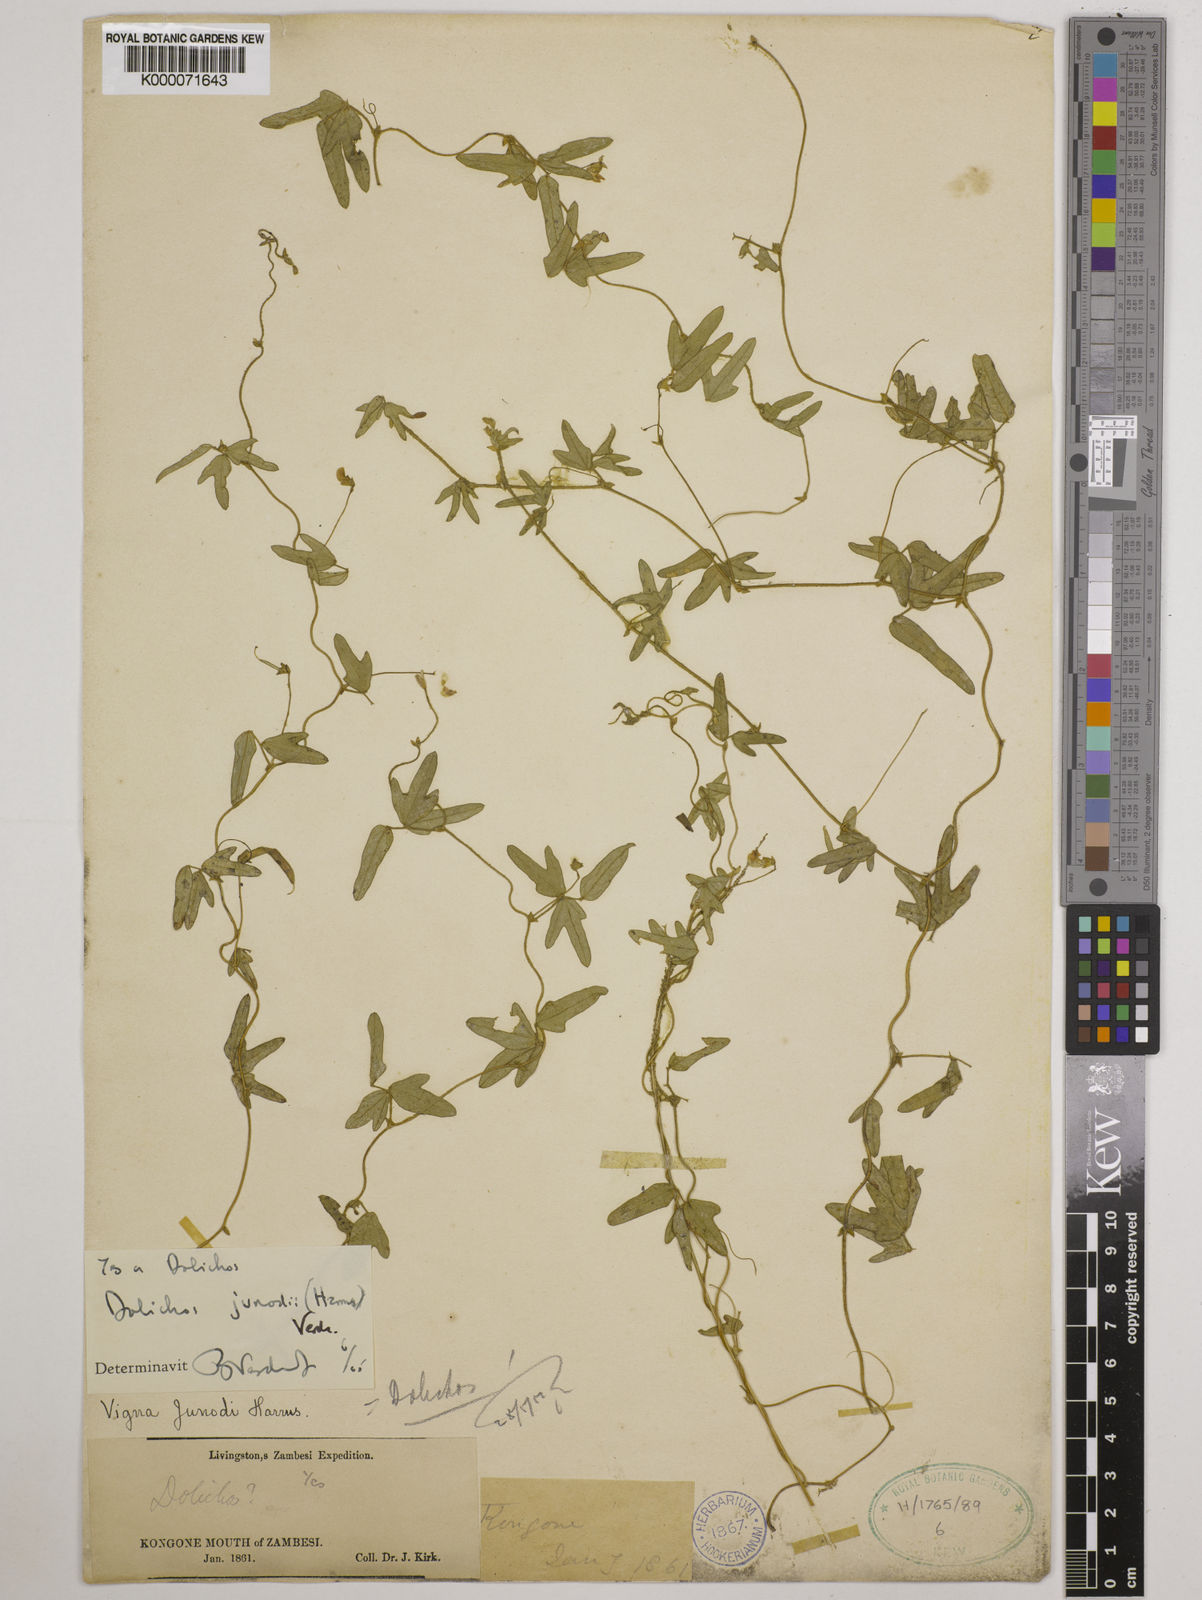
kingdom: Plantae
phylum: Tracheophyta
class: Magnoliopsida
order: Fabales
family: Fabaceae
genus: Dolichos
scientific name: Dolichos junodii
